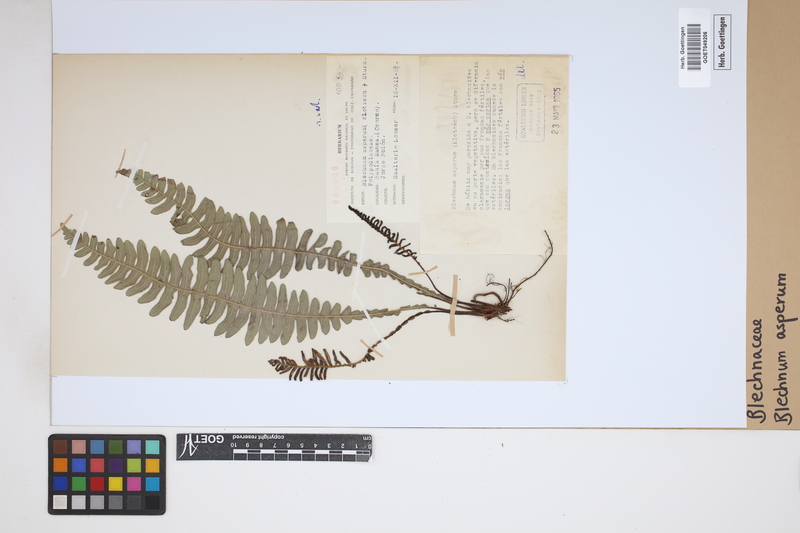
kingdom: Plantae
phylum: Tracheophyta
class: Polypodiopsida
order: Polypodiales
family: Blechnaceae
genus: Austroblechnum
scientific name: Austroblechnum asperum
